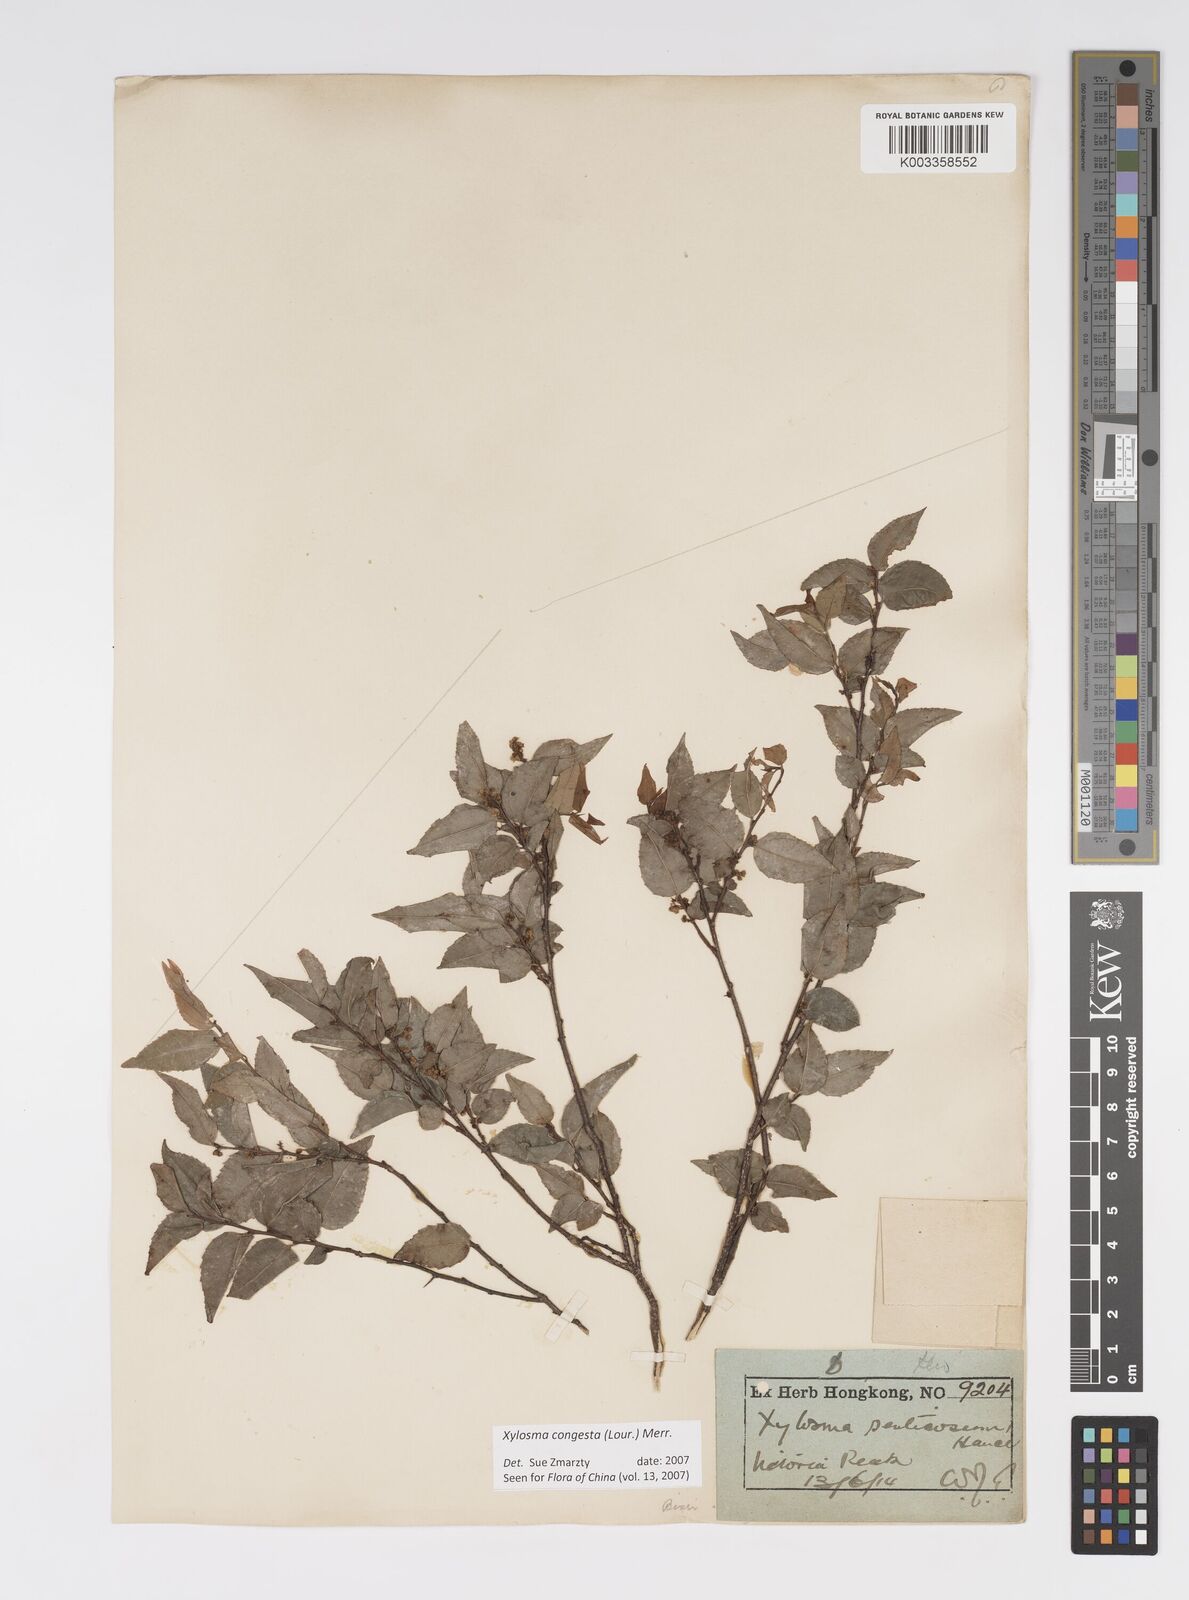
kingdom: Plantae
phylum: Tracheophyta
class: Magnoliopsida
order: Malpighiales
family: Salicaceae
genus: Xylosma
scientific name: Xylosma racemosum
